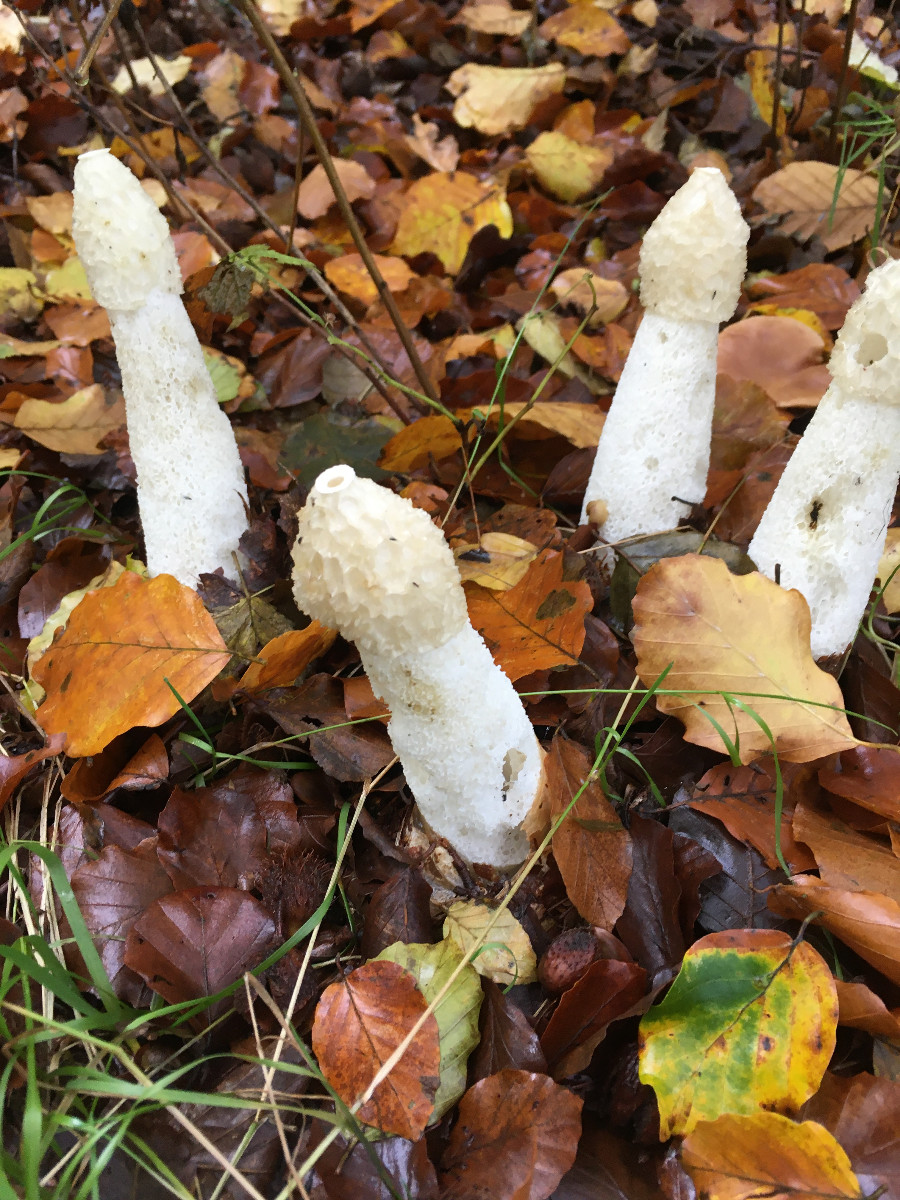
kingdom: Fungi
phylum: Basidiomycota
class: Agaricomycetes
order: Phallales
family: Phallaceae
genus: Phallus
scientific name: Phallus impudicus
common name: almindelig stinksvamp
